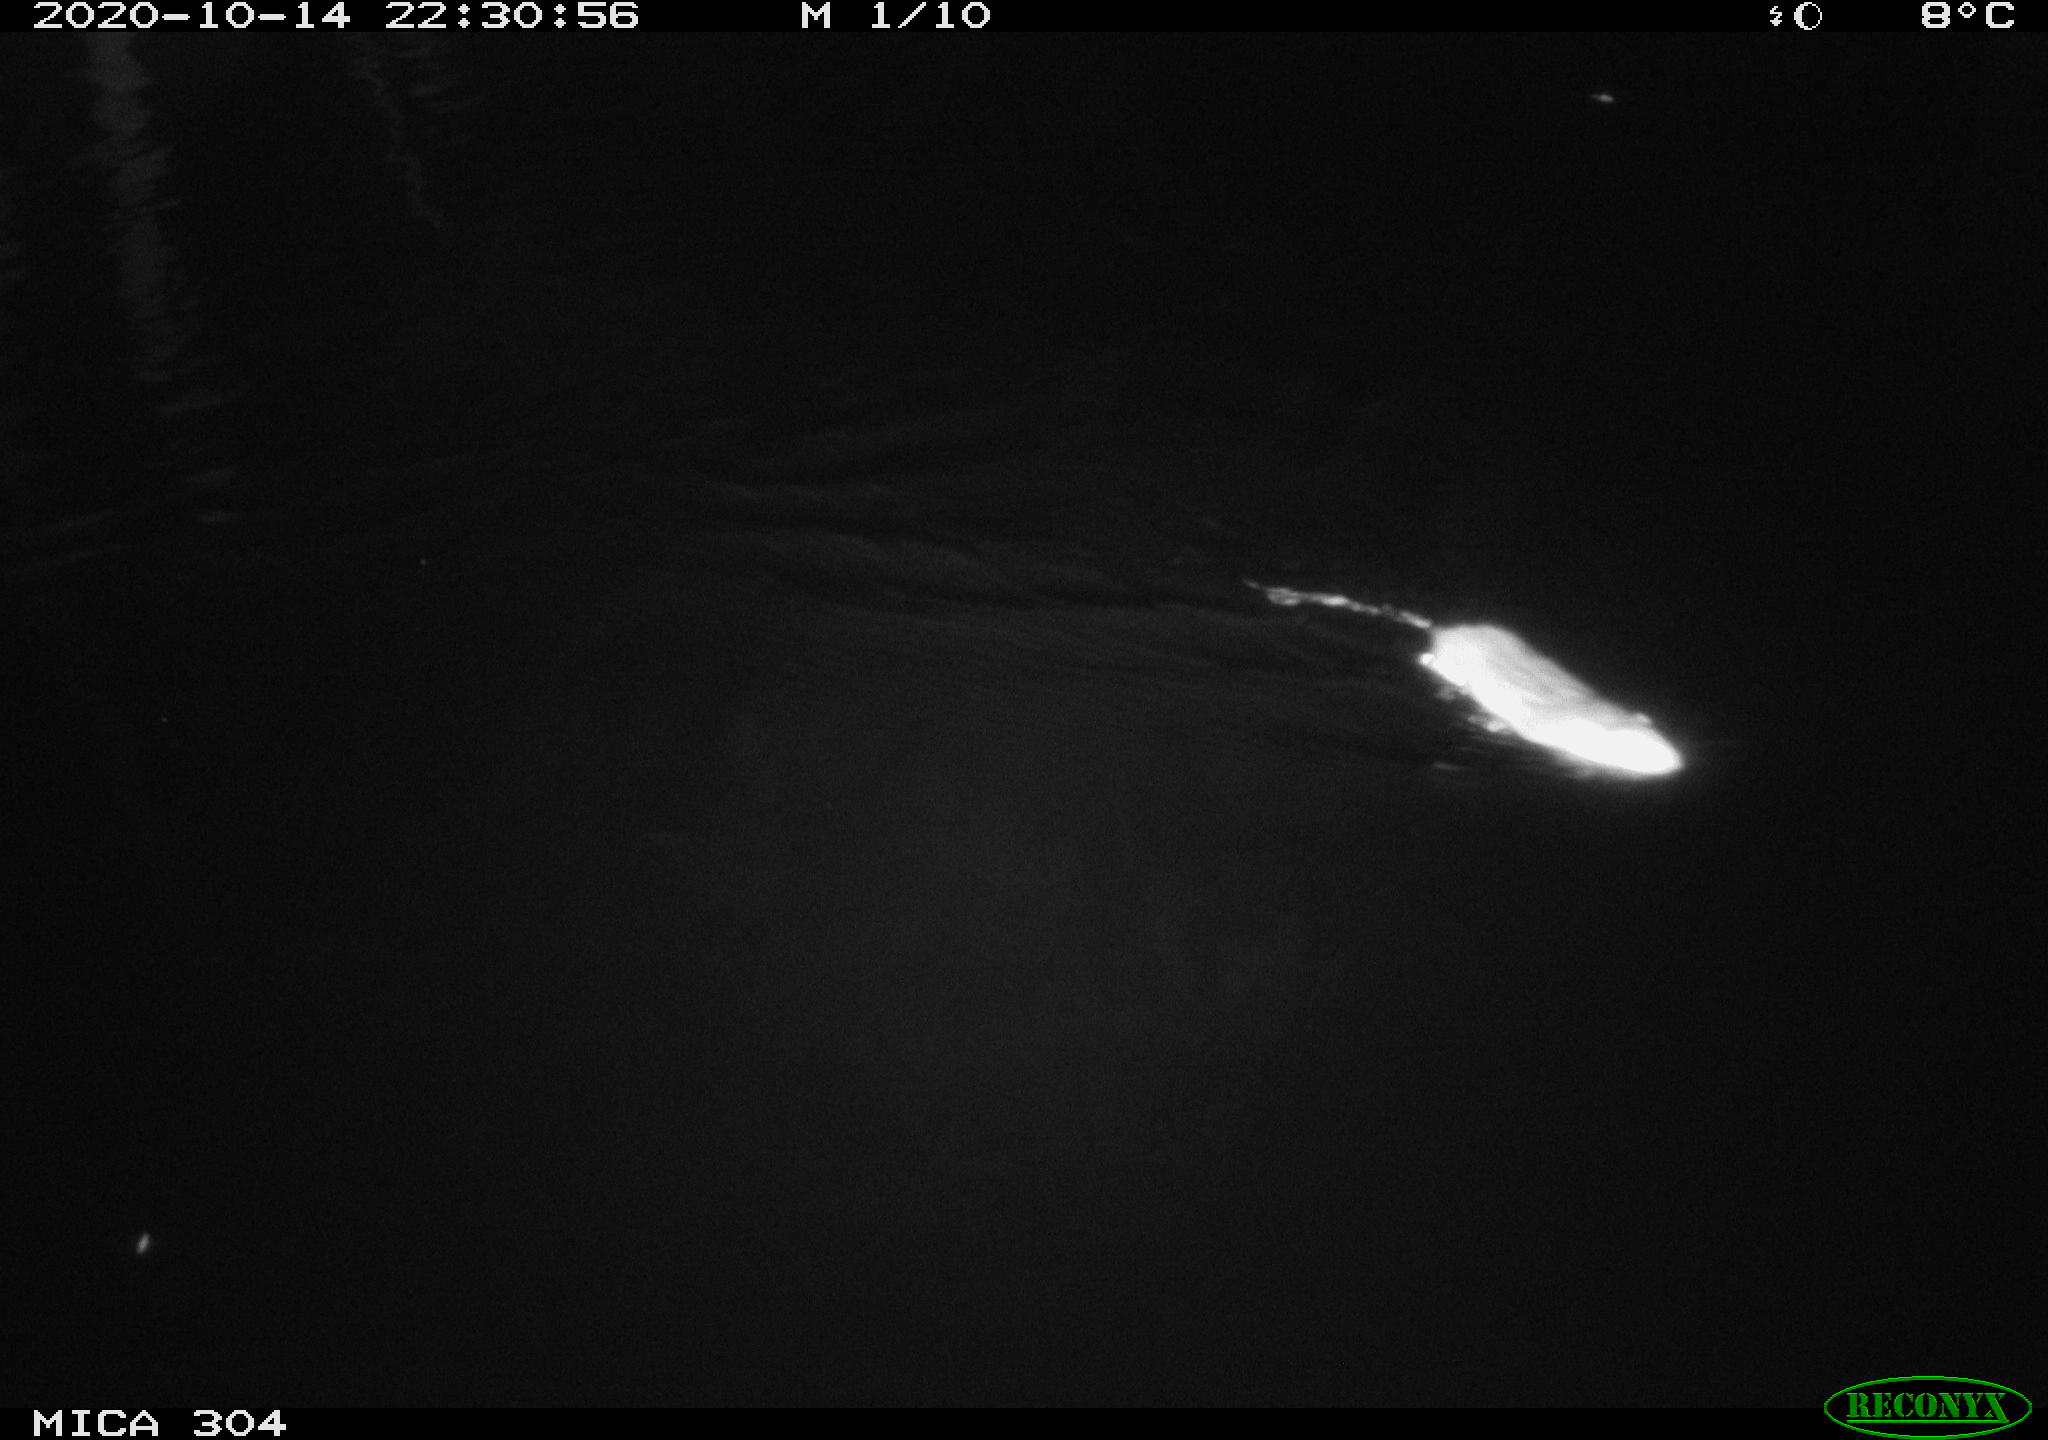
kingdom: Animalia
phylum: Chordata
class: Mammalia
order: Rodentia
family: Muridae
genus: Rattus
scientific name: Rattus norvegicus
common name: Brown rat
